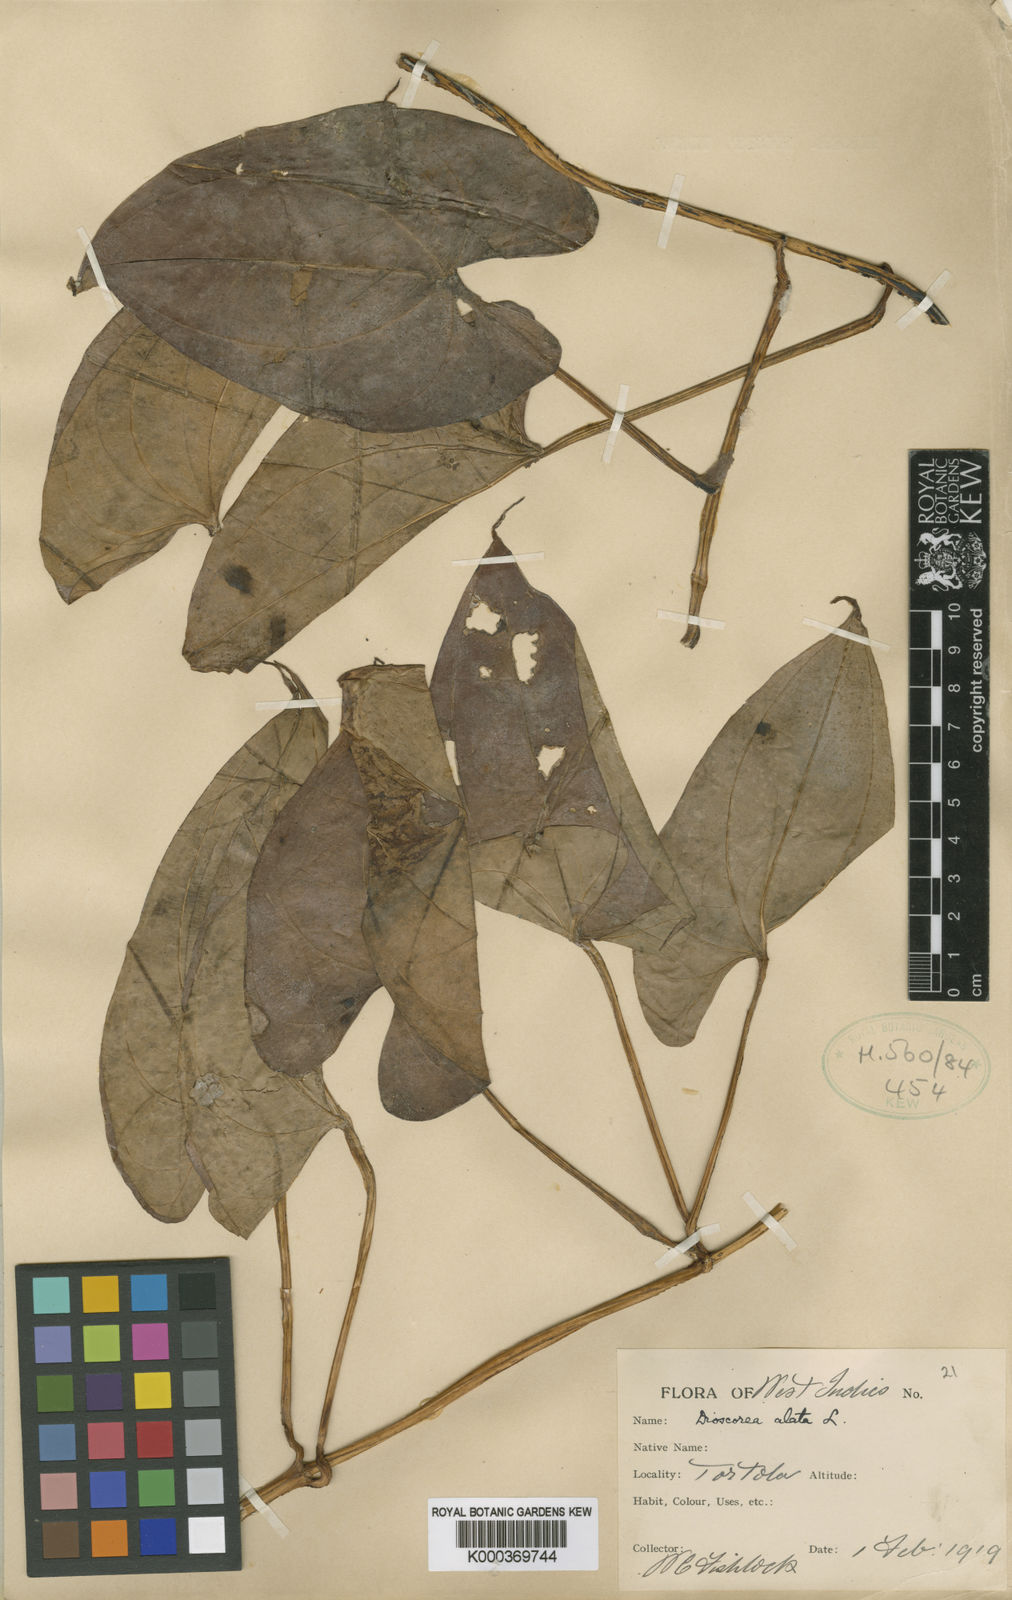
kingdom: Plantae
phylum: Tracheophyta
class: Liliopsida
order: Dioscoreales
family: Dioscoreaceae
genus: Dioscorea
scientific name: Dioscorea alata
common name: Water yam
